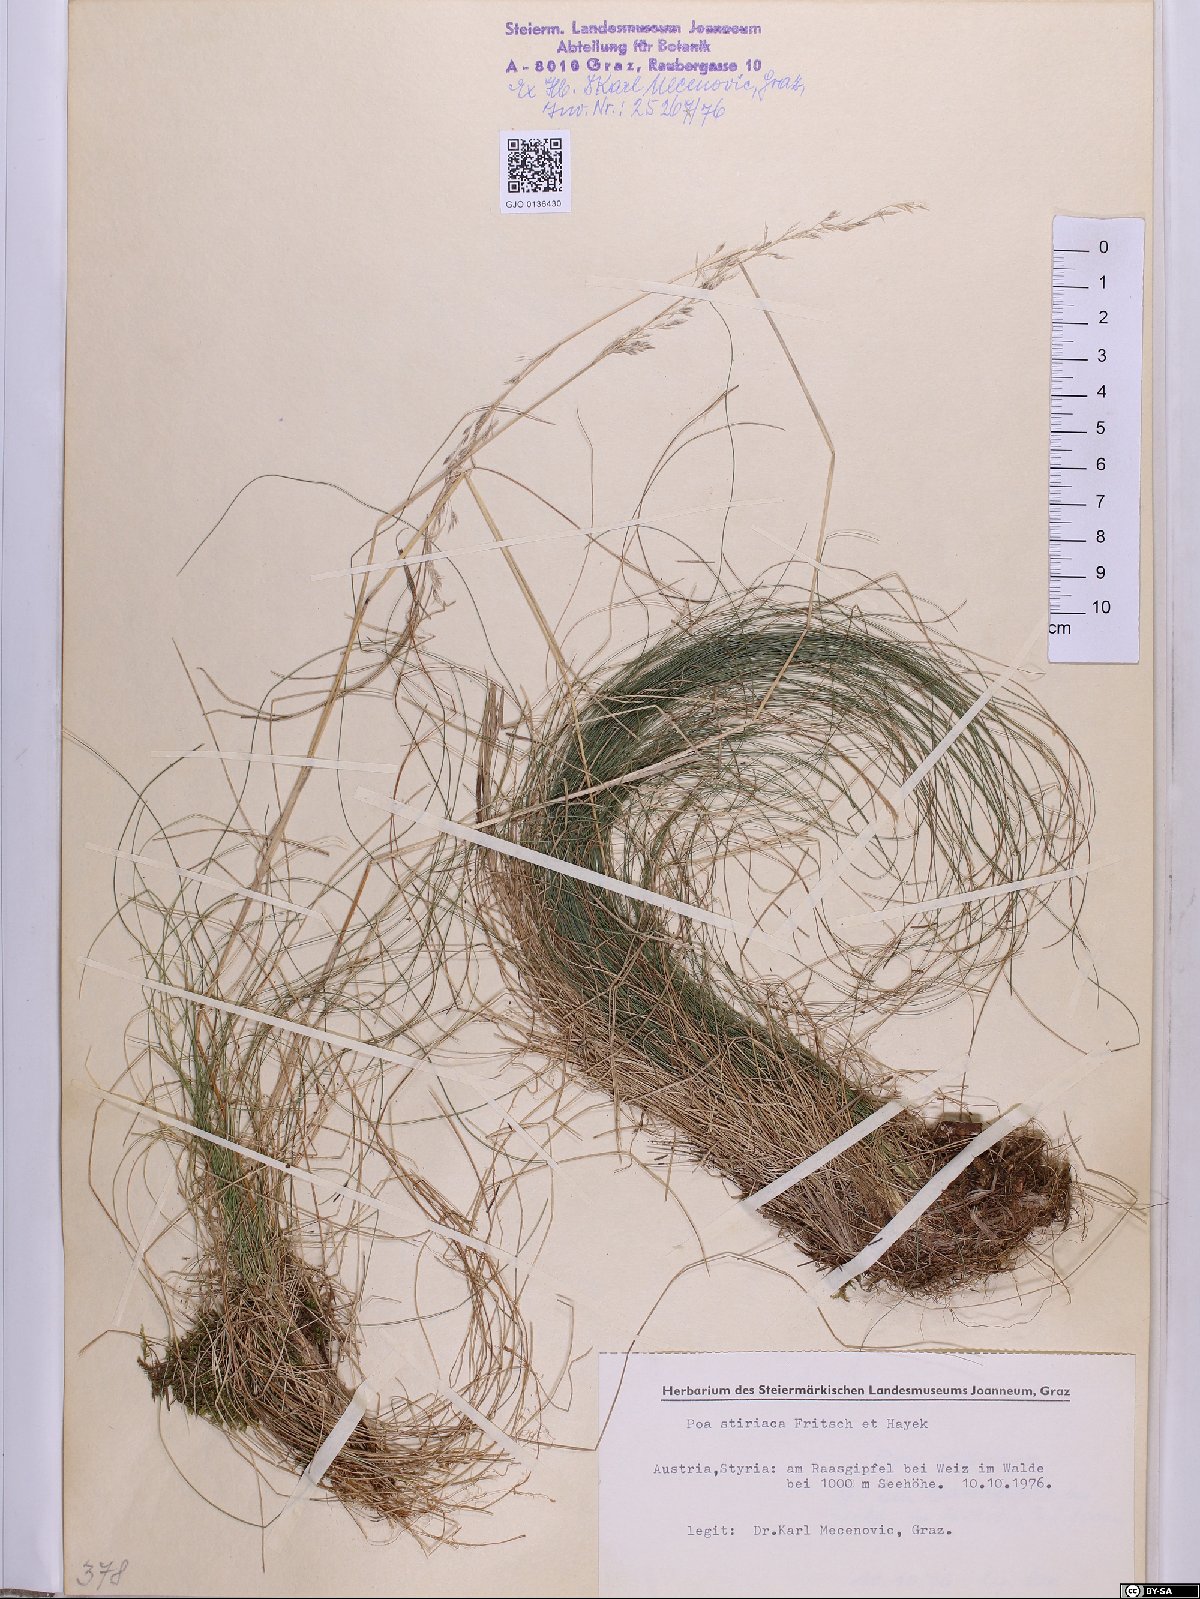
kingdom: Plantae
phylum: Tracheophyta
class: Liliopsida
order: Poales
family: Poaceae
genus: Poa
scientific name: Poa stiriaca
